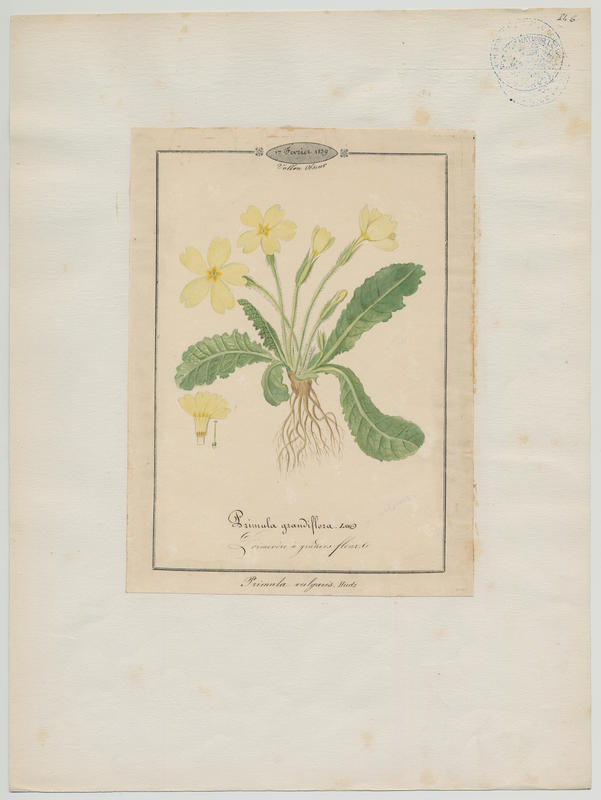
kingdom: Plantae
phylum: Tracheophyta
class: Magnoliopsida
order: Ericales
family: Primulaceae
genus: Primula
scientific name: Primula vulgaris
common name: Primrose
